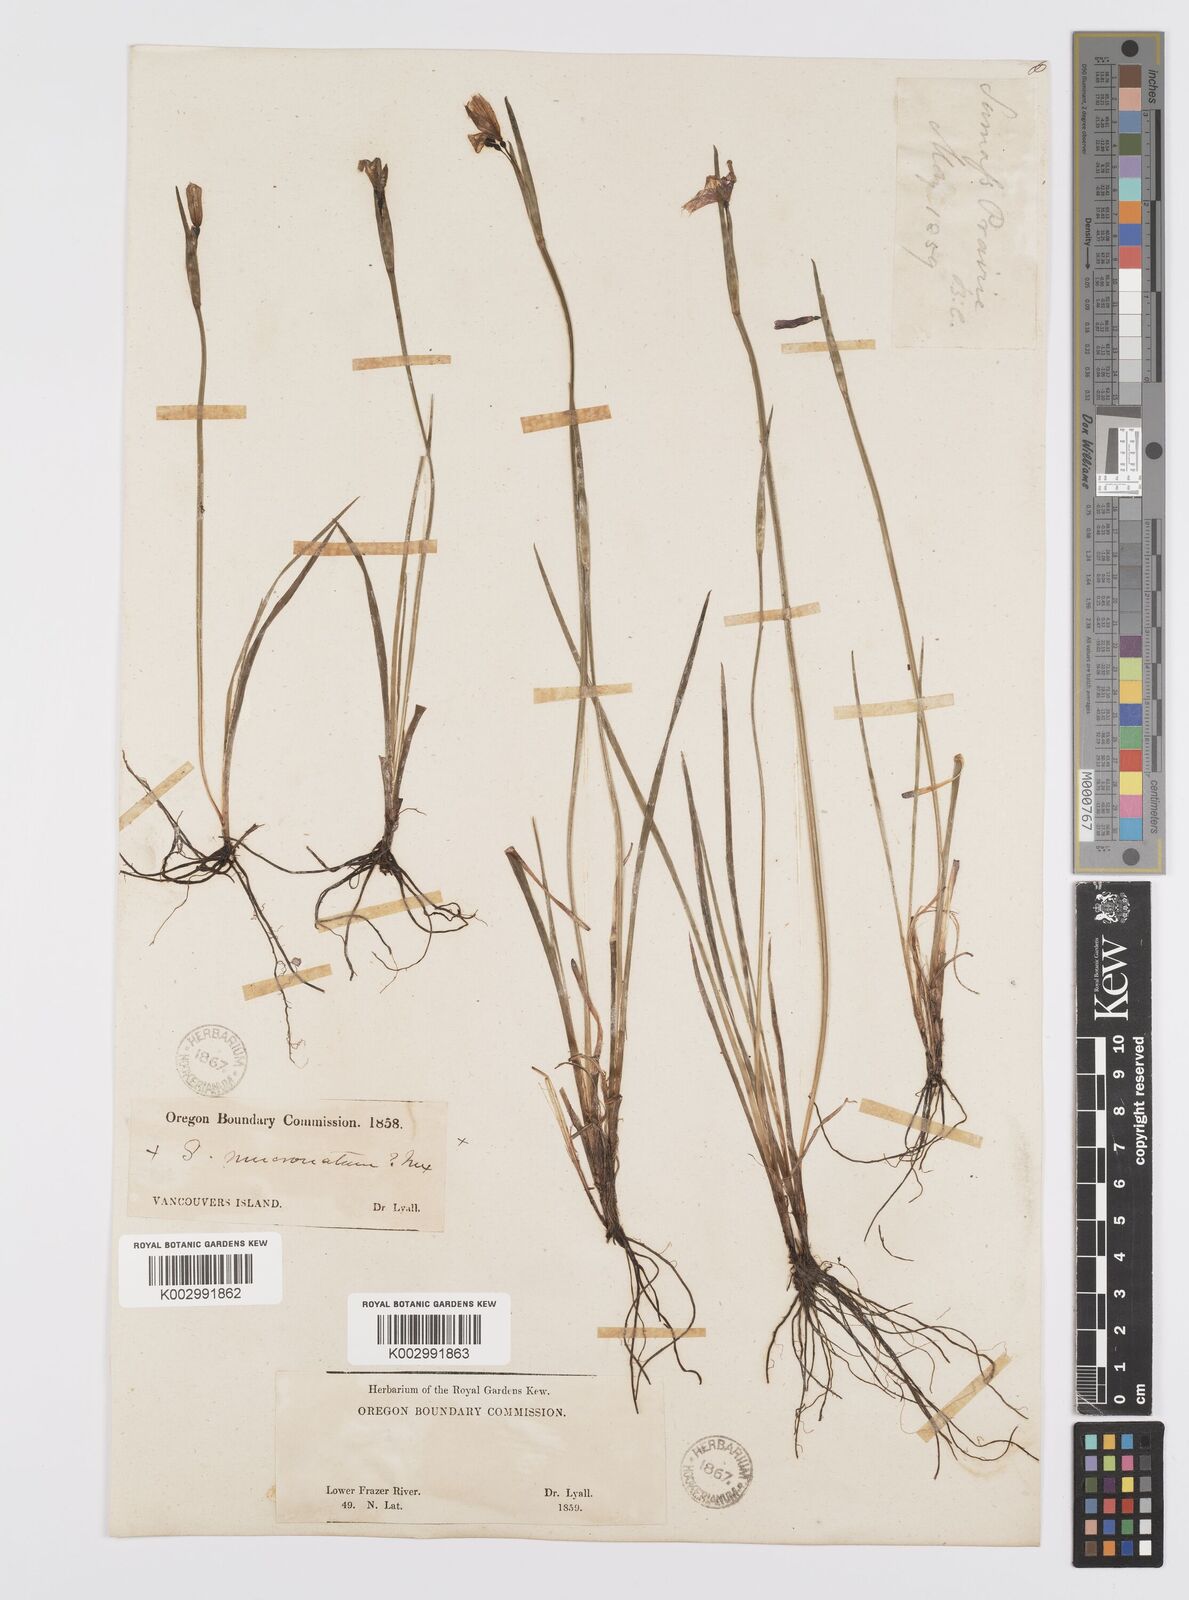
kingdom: Plantae
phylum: Tracheophyta
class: Liliopsida
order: Asparagales
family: Iridaceae
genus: Sisyrinchium
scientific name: Sisyrinchium bermudiana
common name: Blue-eyed-grass
